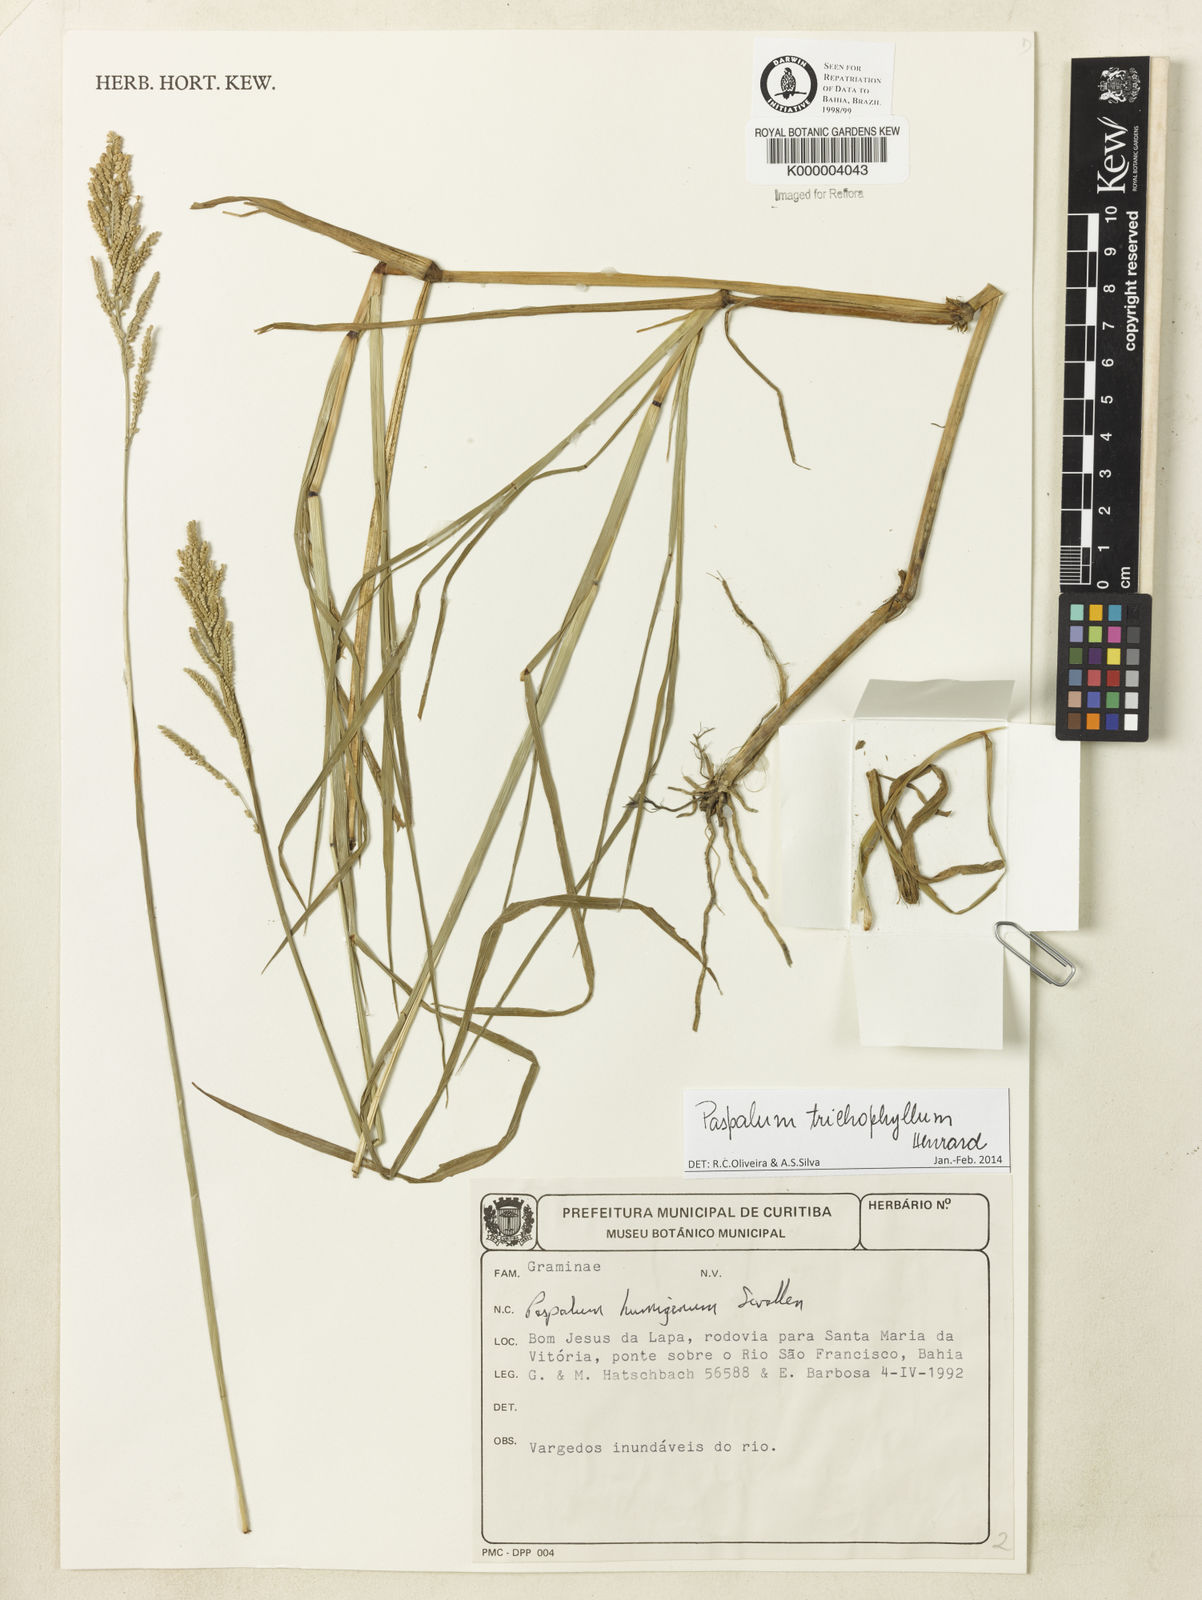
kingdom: Plantae
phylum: Tracheophyta
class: Liliopsida
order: Poales
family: Poaceae
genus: Paspalum
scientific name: Paspalum trichophyllum
